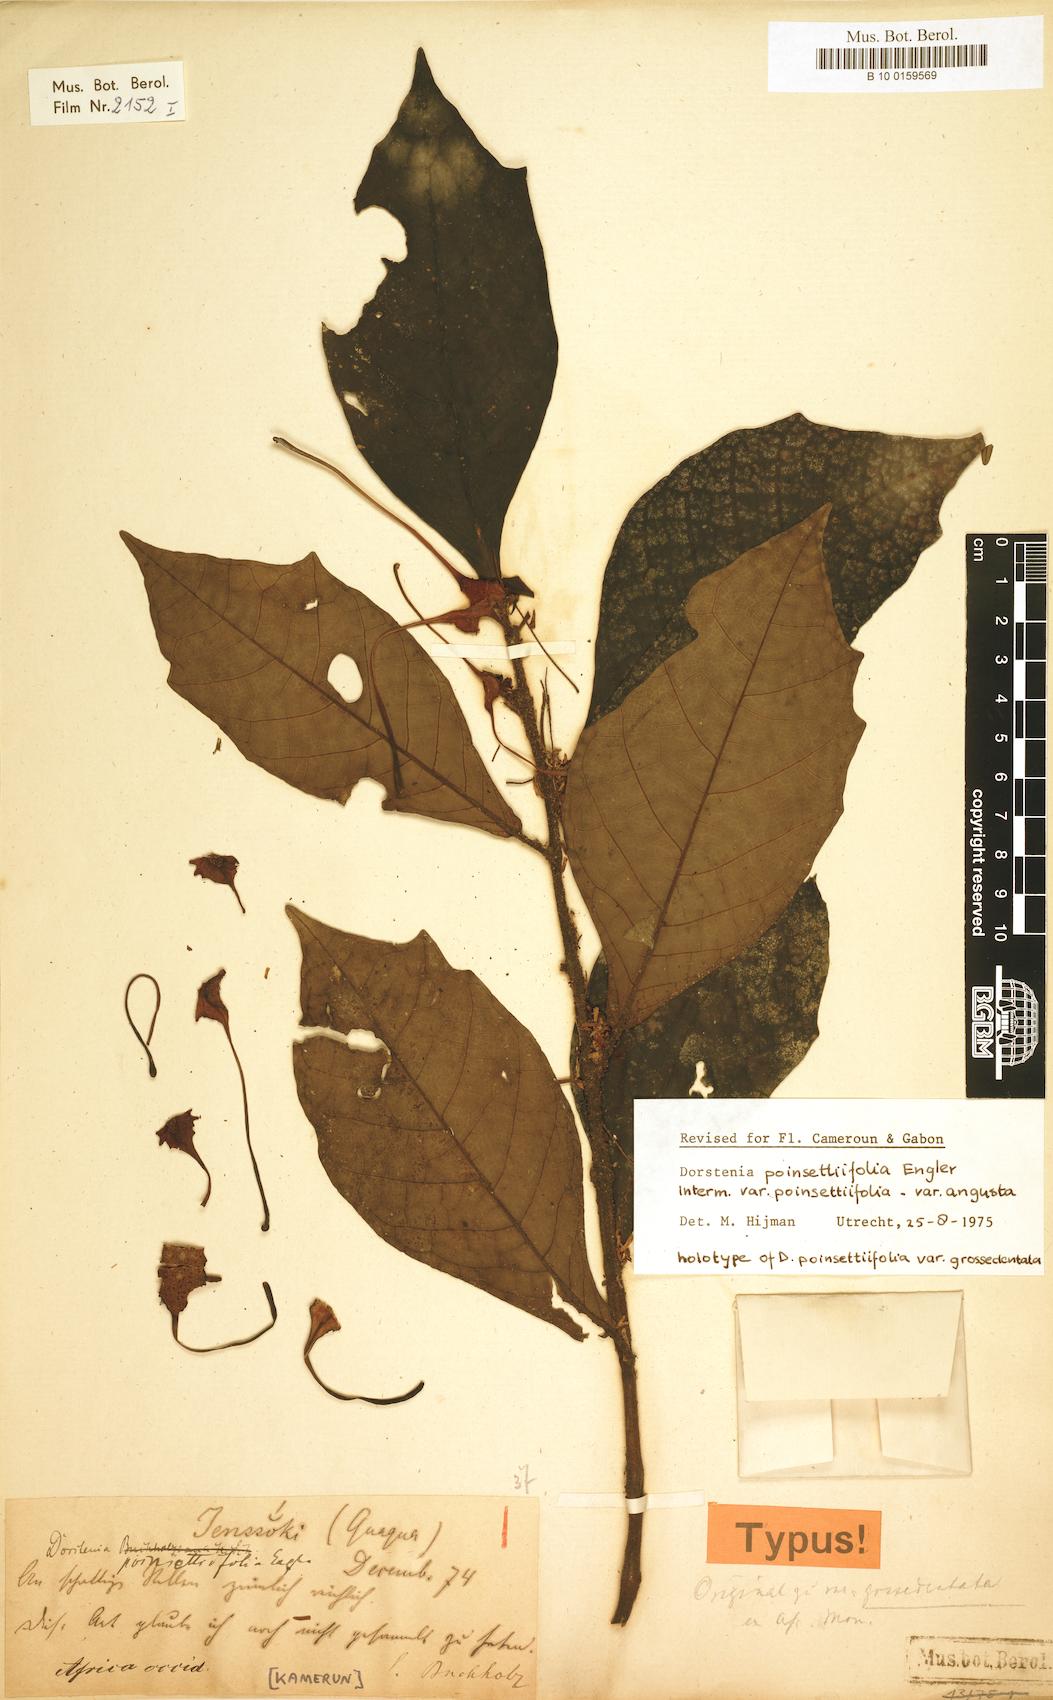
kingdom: Plantae
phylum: Tracheophyta
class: Magnoliopsida
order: Rosales
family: Moraceae
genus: Dorstenia
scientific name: Dorstenia poinsettifolia
